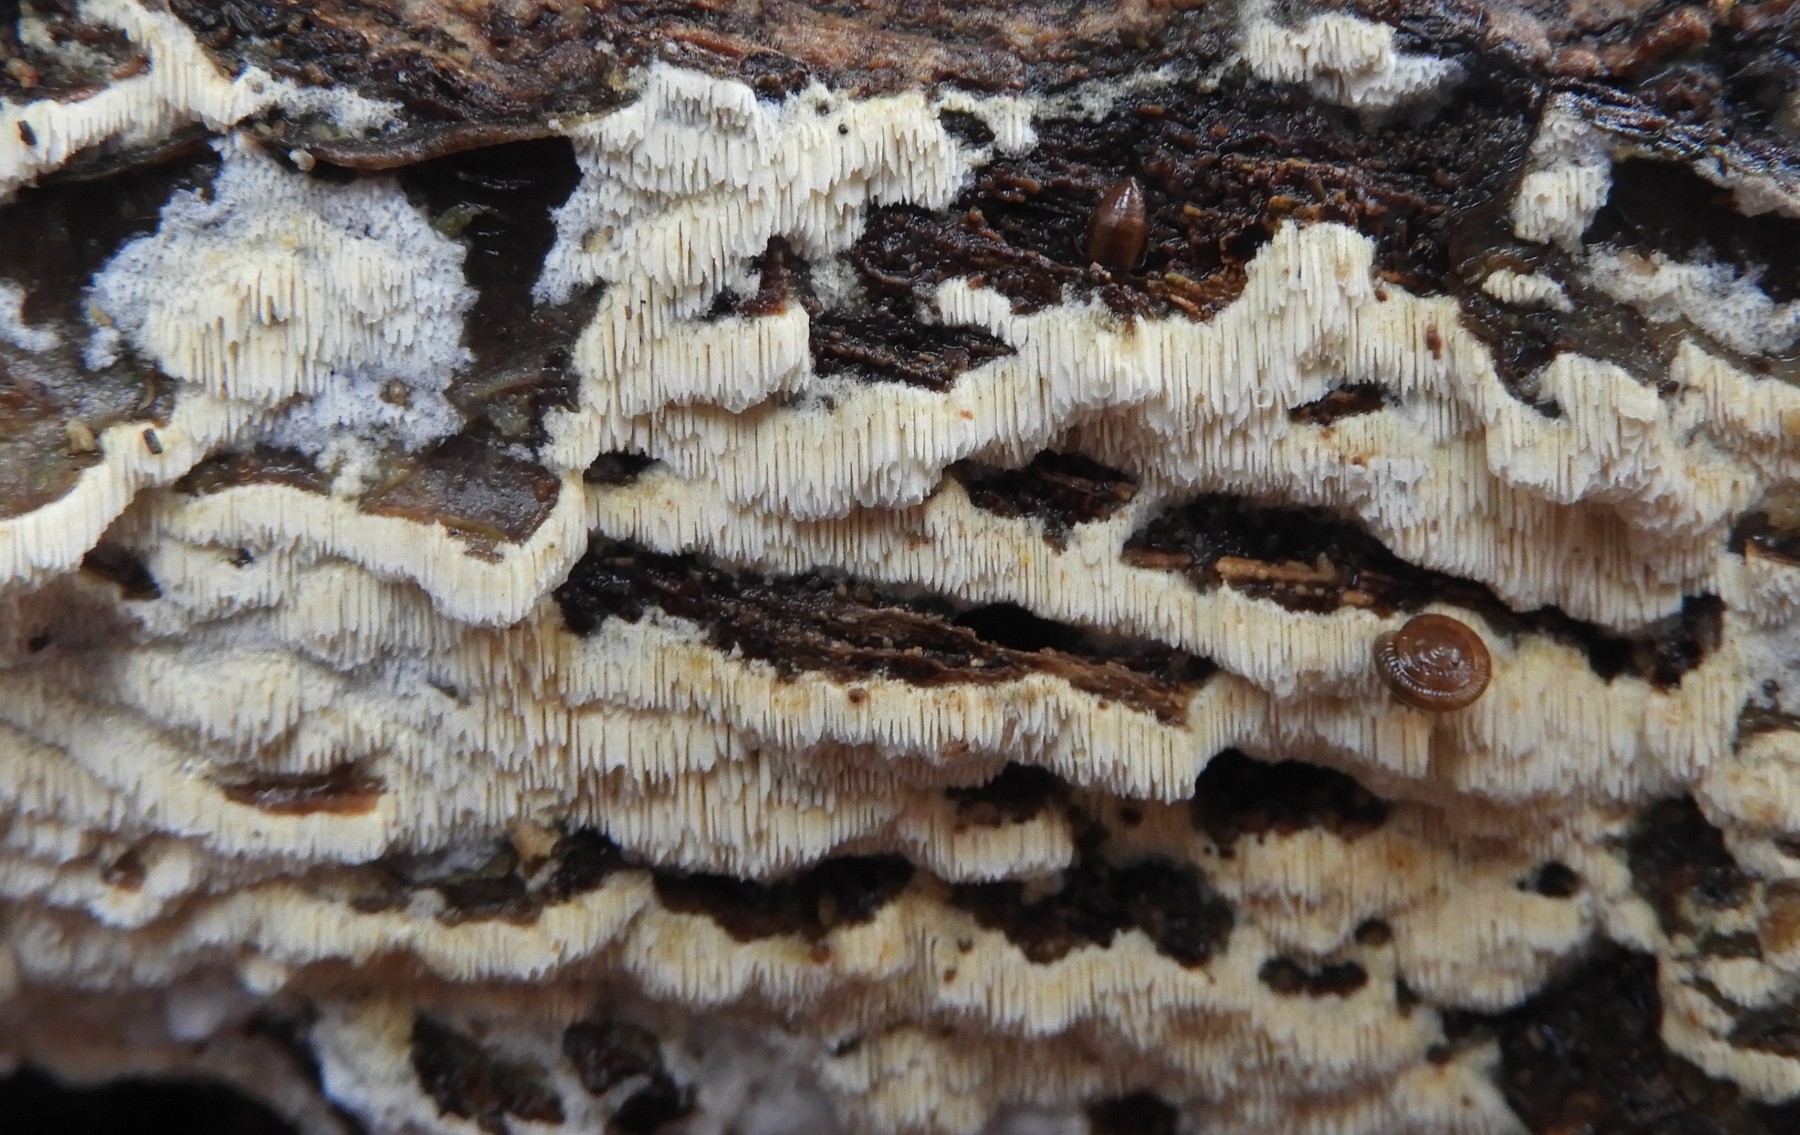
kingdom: Fungi
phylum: Basidiomycota
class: Agaricomycetes
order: Hymenochaetales
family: Schizoporaceae
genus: Xylodon
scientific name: Xylodon subtropicus
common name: labyrint-tandsvamp
